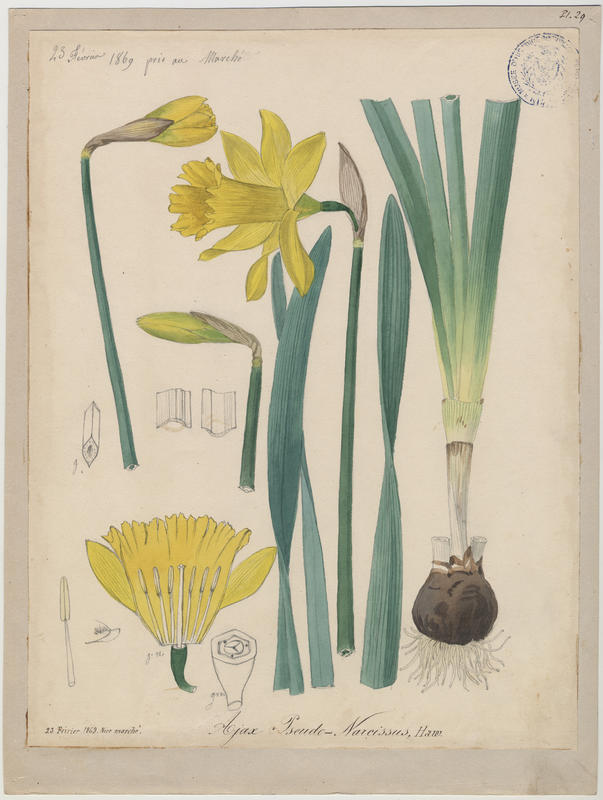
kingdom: Plantae
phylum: Tracheophyta
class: Liliopsida
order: Asparagales
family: Amaryllidaceae
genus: Narcissus
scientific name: Narcissus pseudonarcissus
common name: Daffodil
